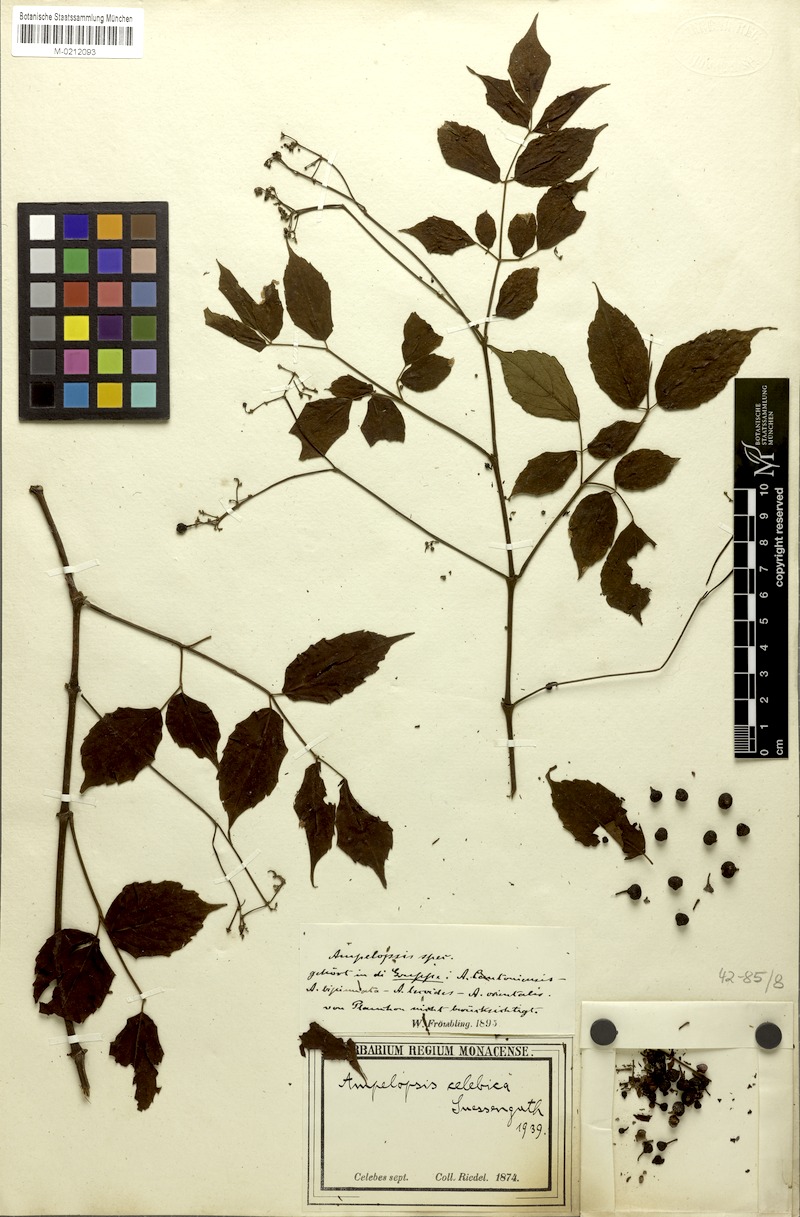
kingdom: Plantae
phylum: Tracheophyta
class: Magnoliopsida
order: Vitales
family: Vitaceae
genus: Nekemias
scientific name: Nekemias celebica
